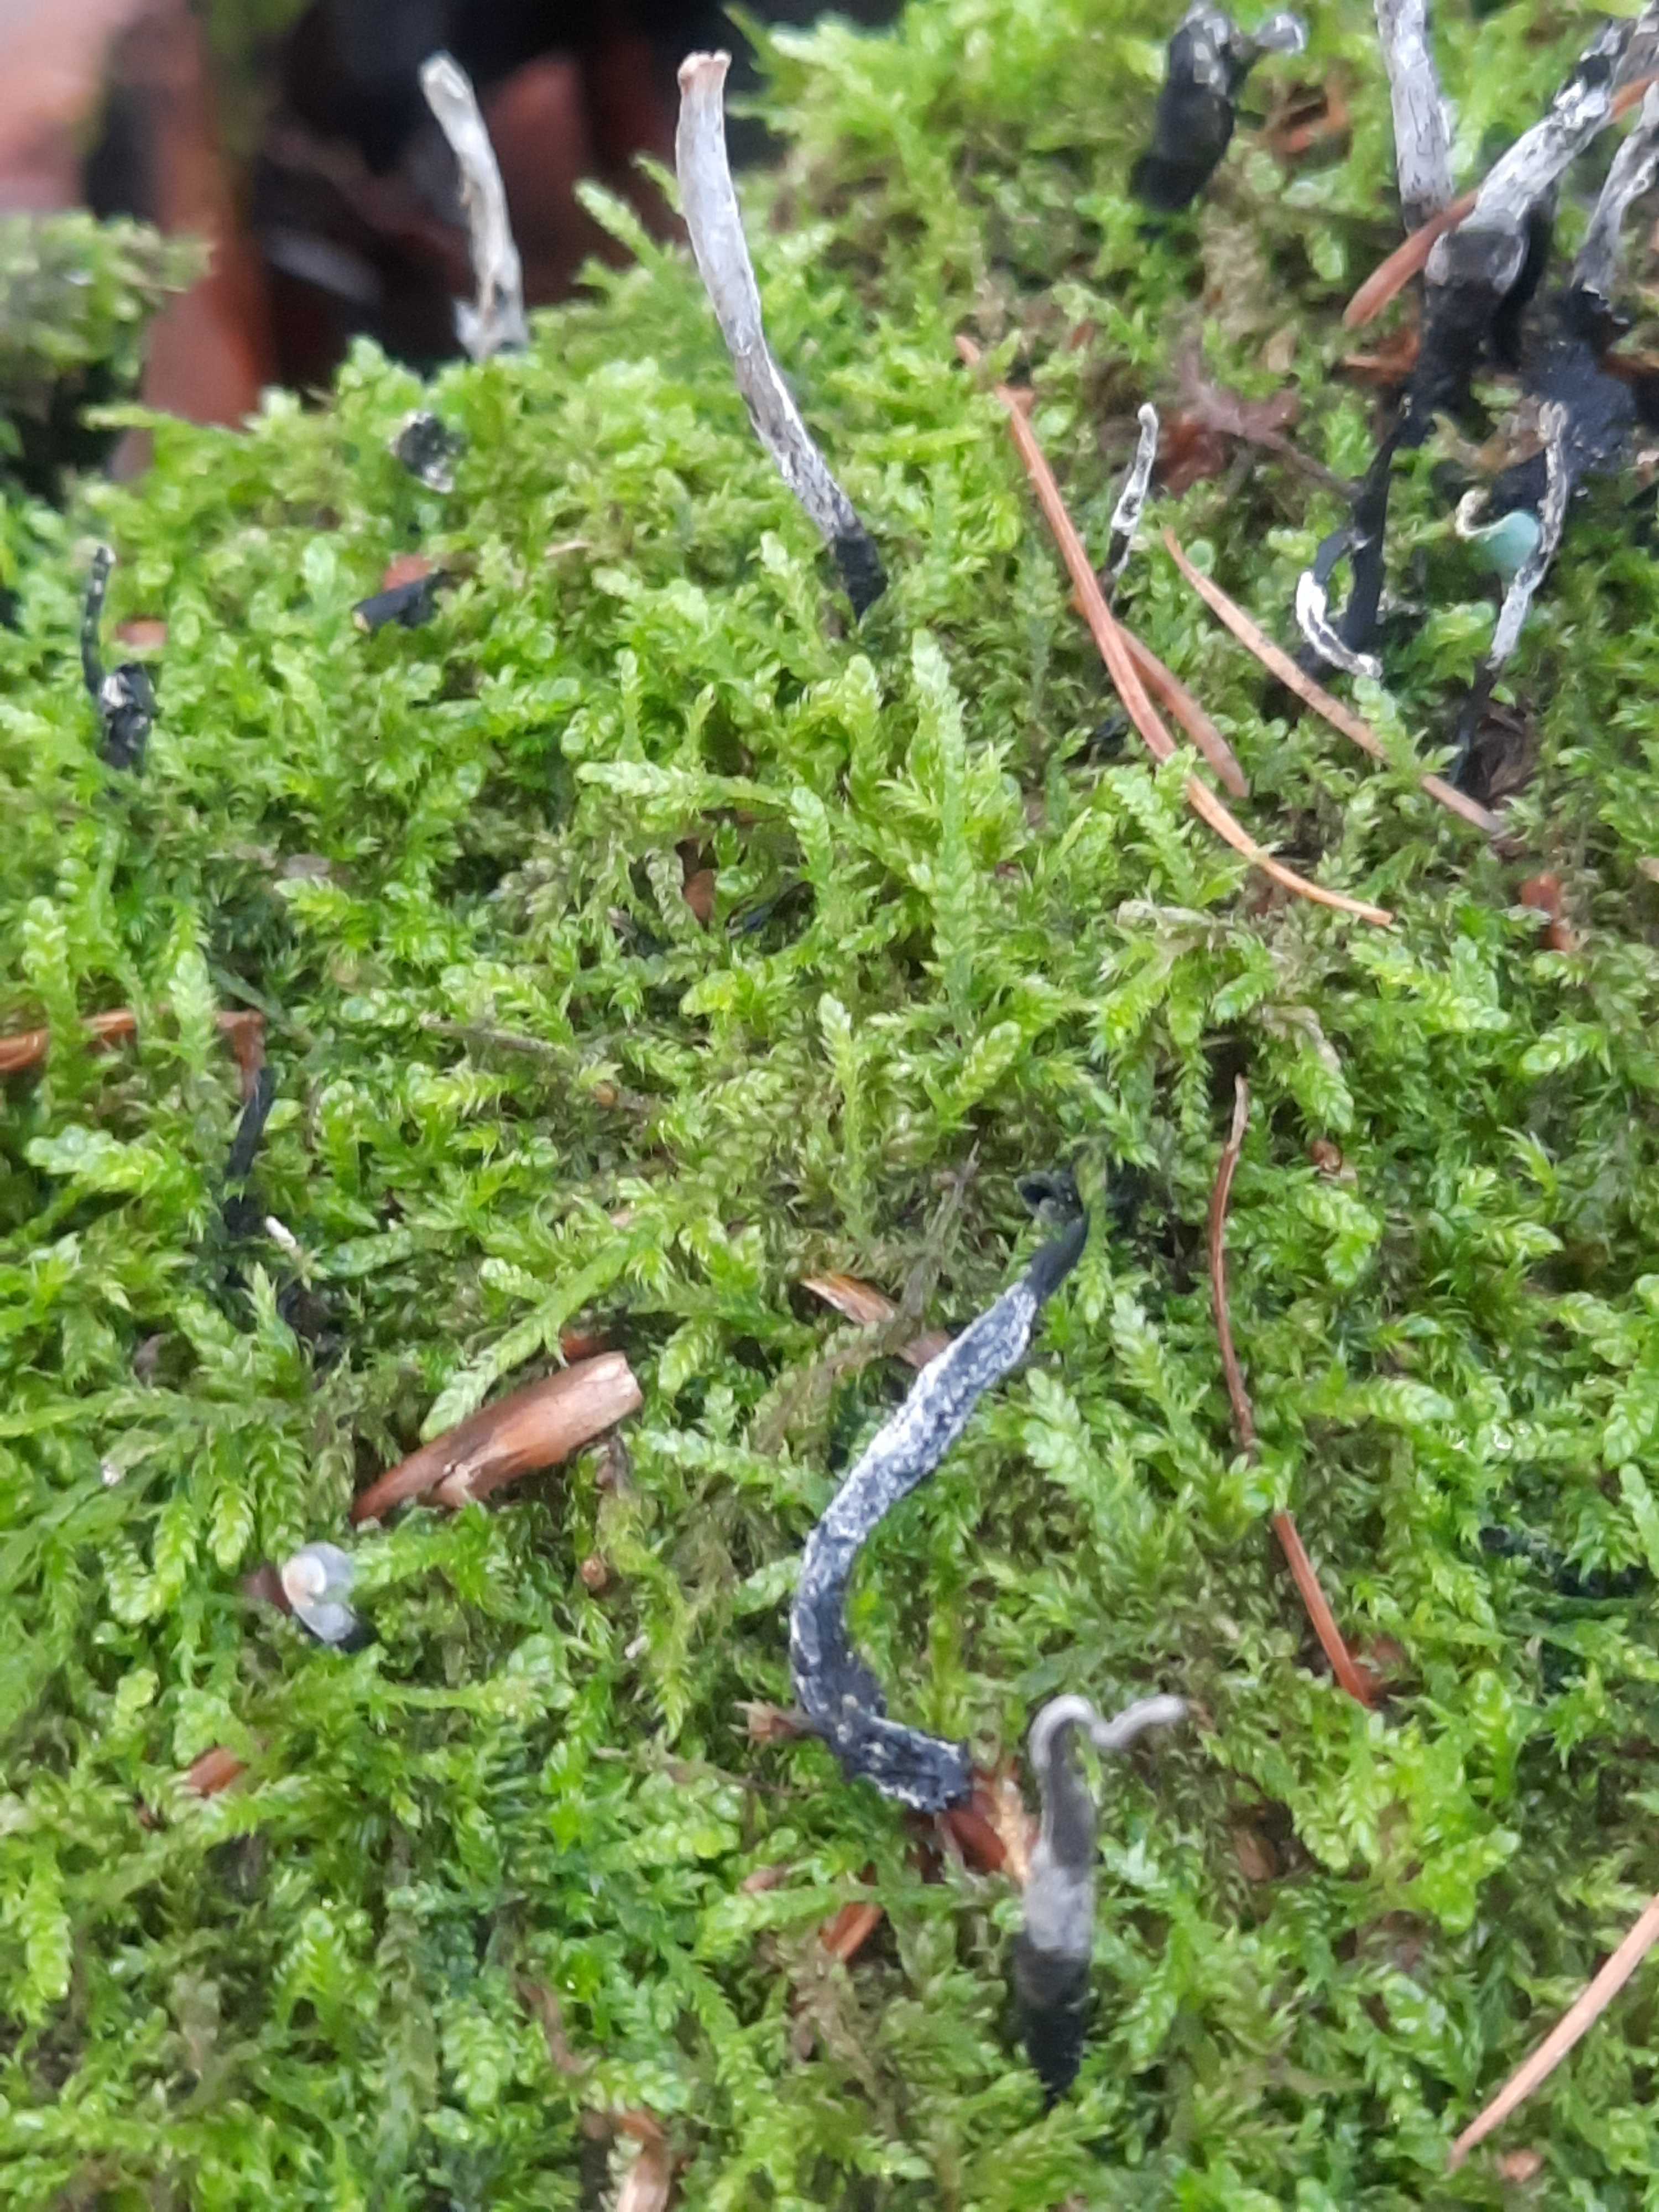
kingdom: Fungi
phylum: Ascomycota
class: Sordariomycetes
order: Xylariales
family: Xylariaceae
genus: Xylaria
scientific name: Xylaria hypoxylon
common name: grenet stødsvamp
